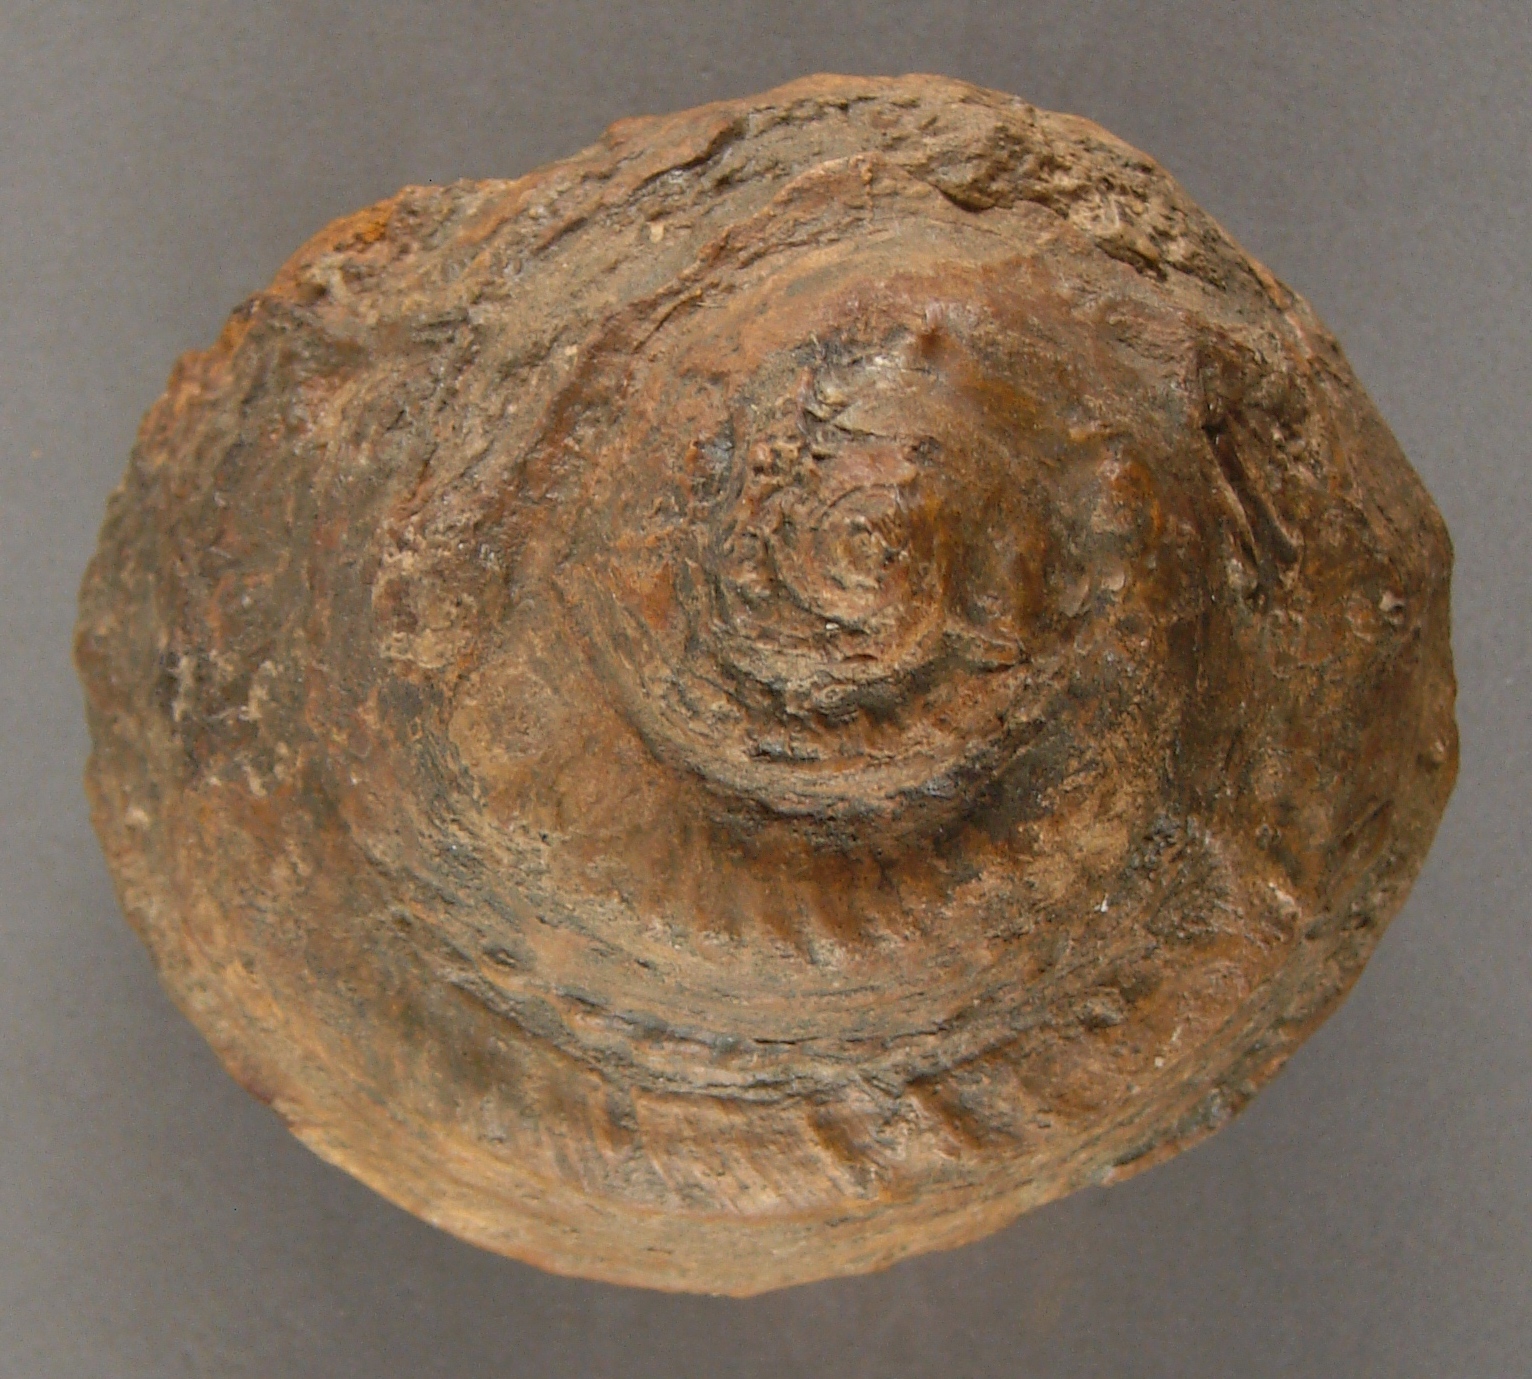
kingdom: Animalia
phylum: Mollusca
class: Gastropoda
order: Pleurotomariida
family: Pleurotomariidae
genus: Pleurotomaria
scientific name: Pleurotomaria rotundata
